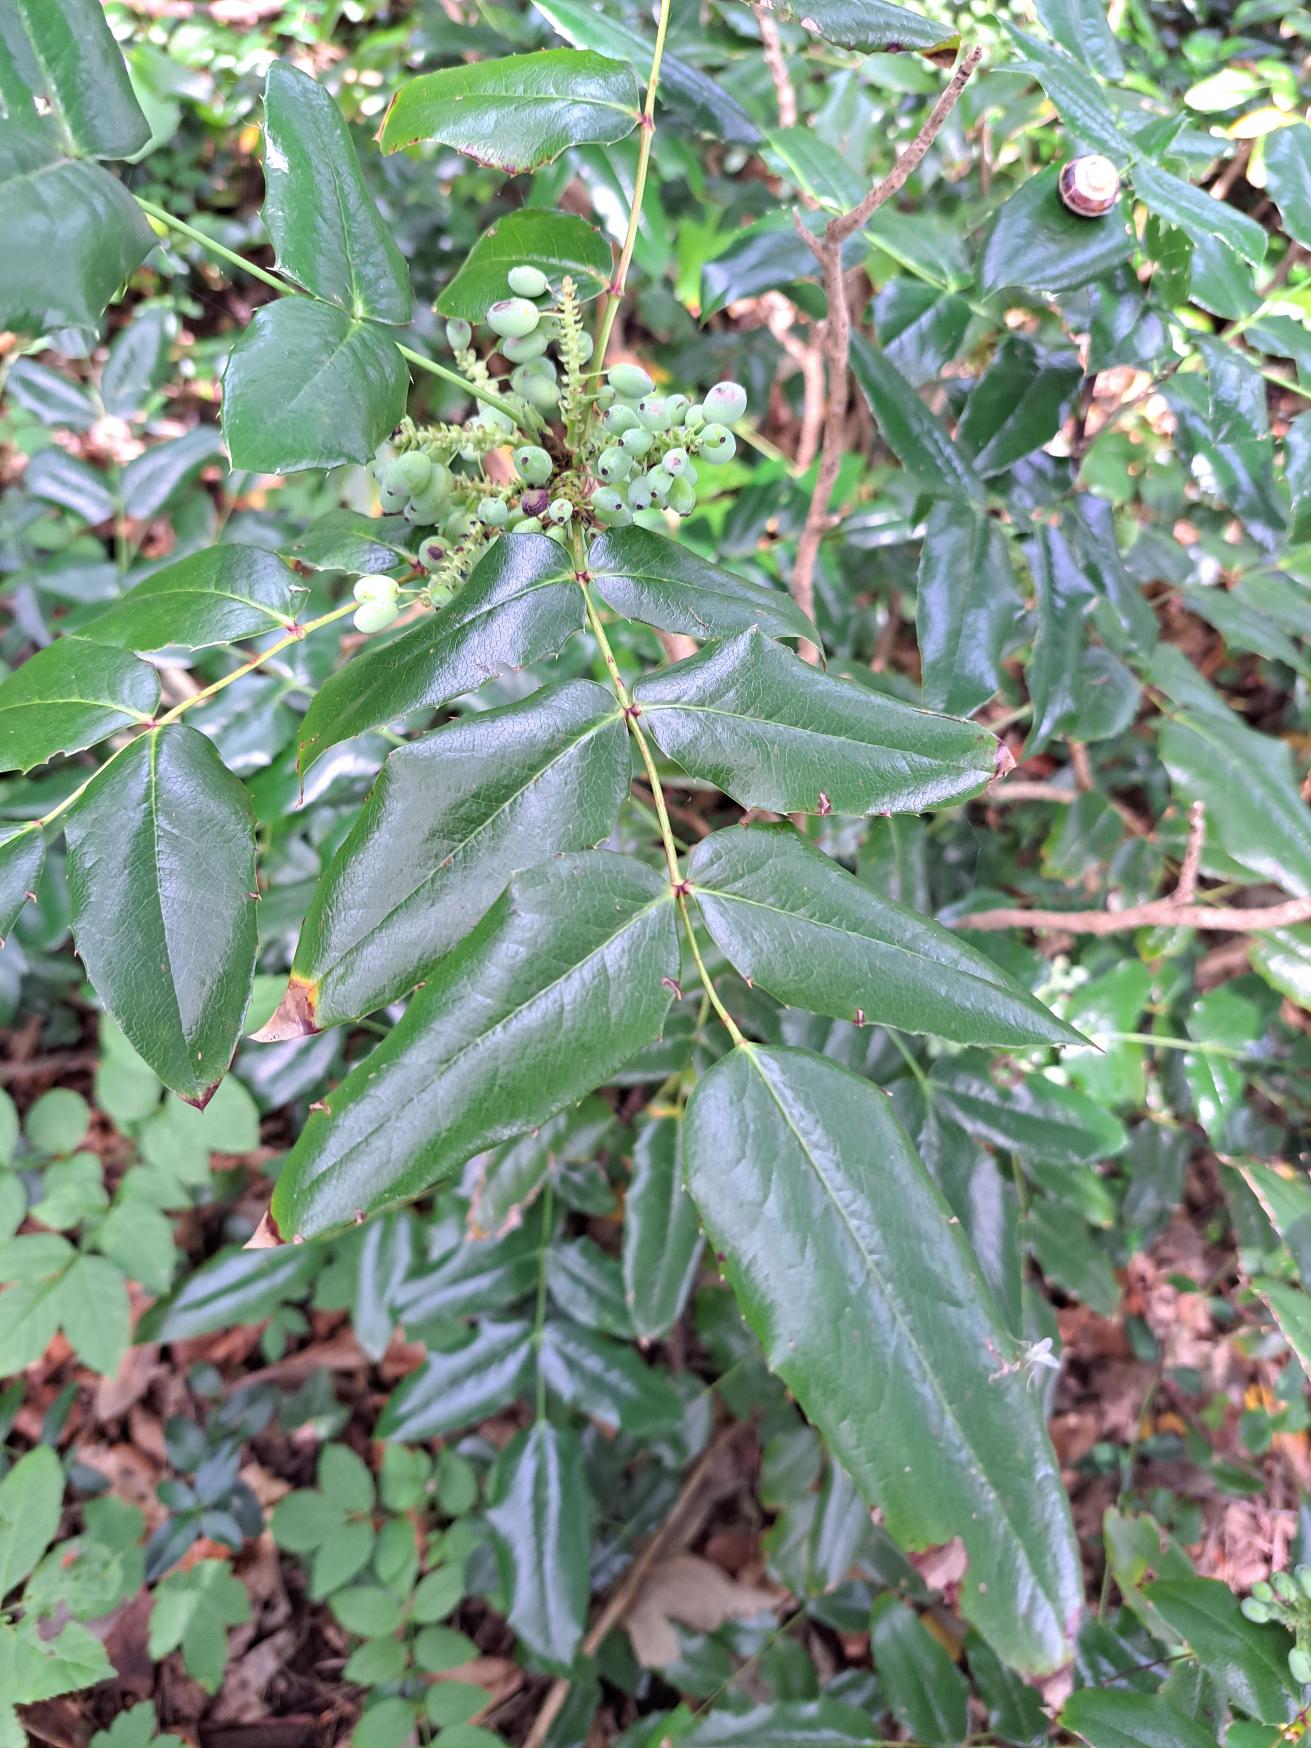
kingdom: Plantae
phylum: Tracheophyta
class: Magnoliopsida
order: Ranunculales
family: Berberidaceae
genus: Mahonia
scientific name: Mahonia aquifolium
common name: Almindelig mahonie
